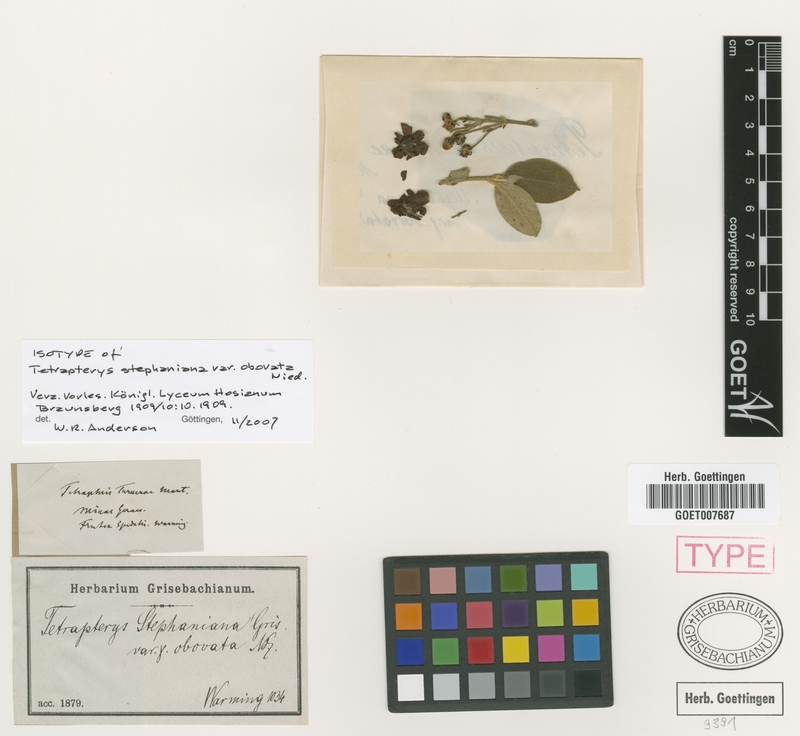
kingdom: Plantae
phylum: Tracheophyta
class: Magnoliopsida
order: Malpighiales
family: Malpighiaceae
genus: Glicophyllum
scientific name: Glicophyllum ramiflorum
